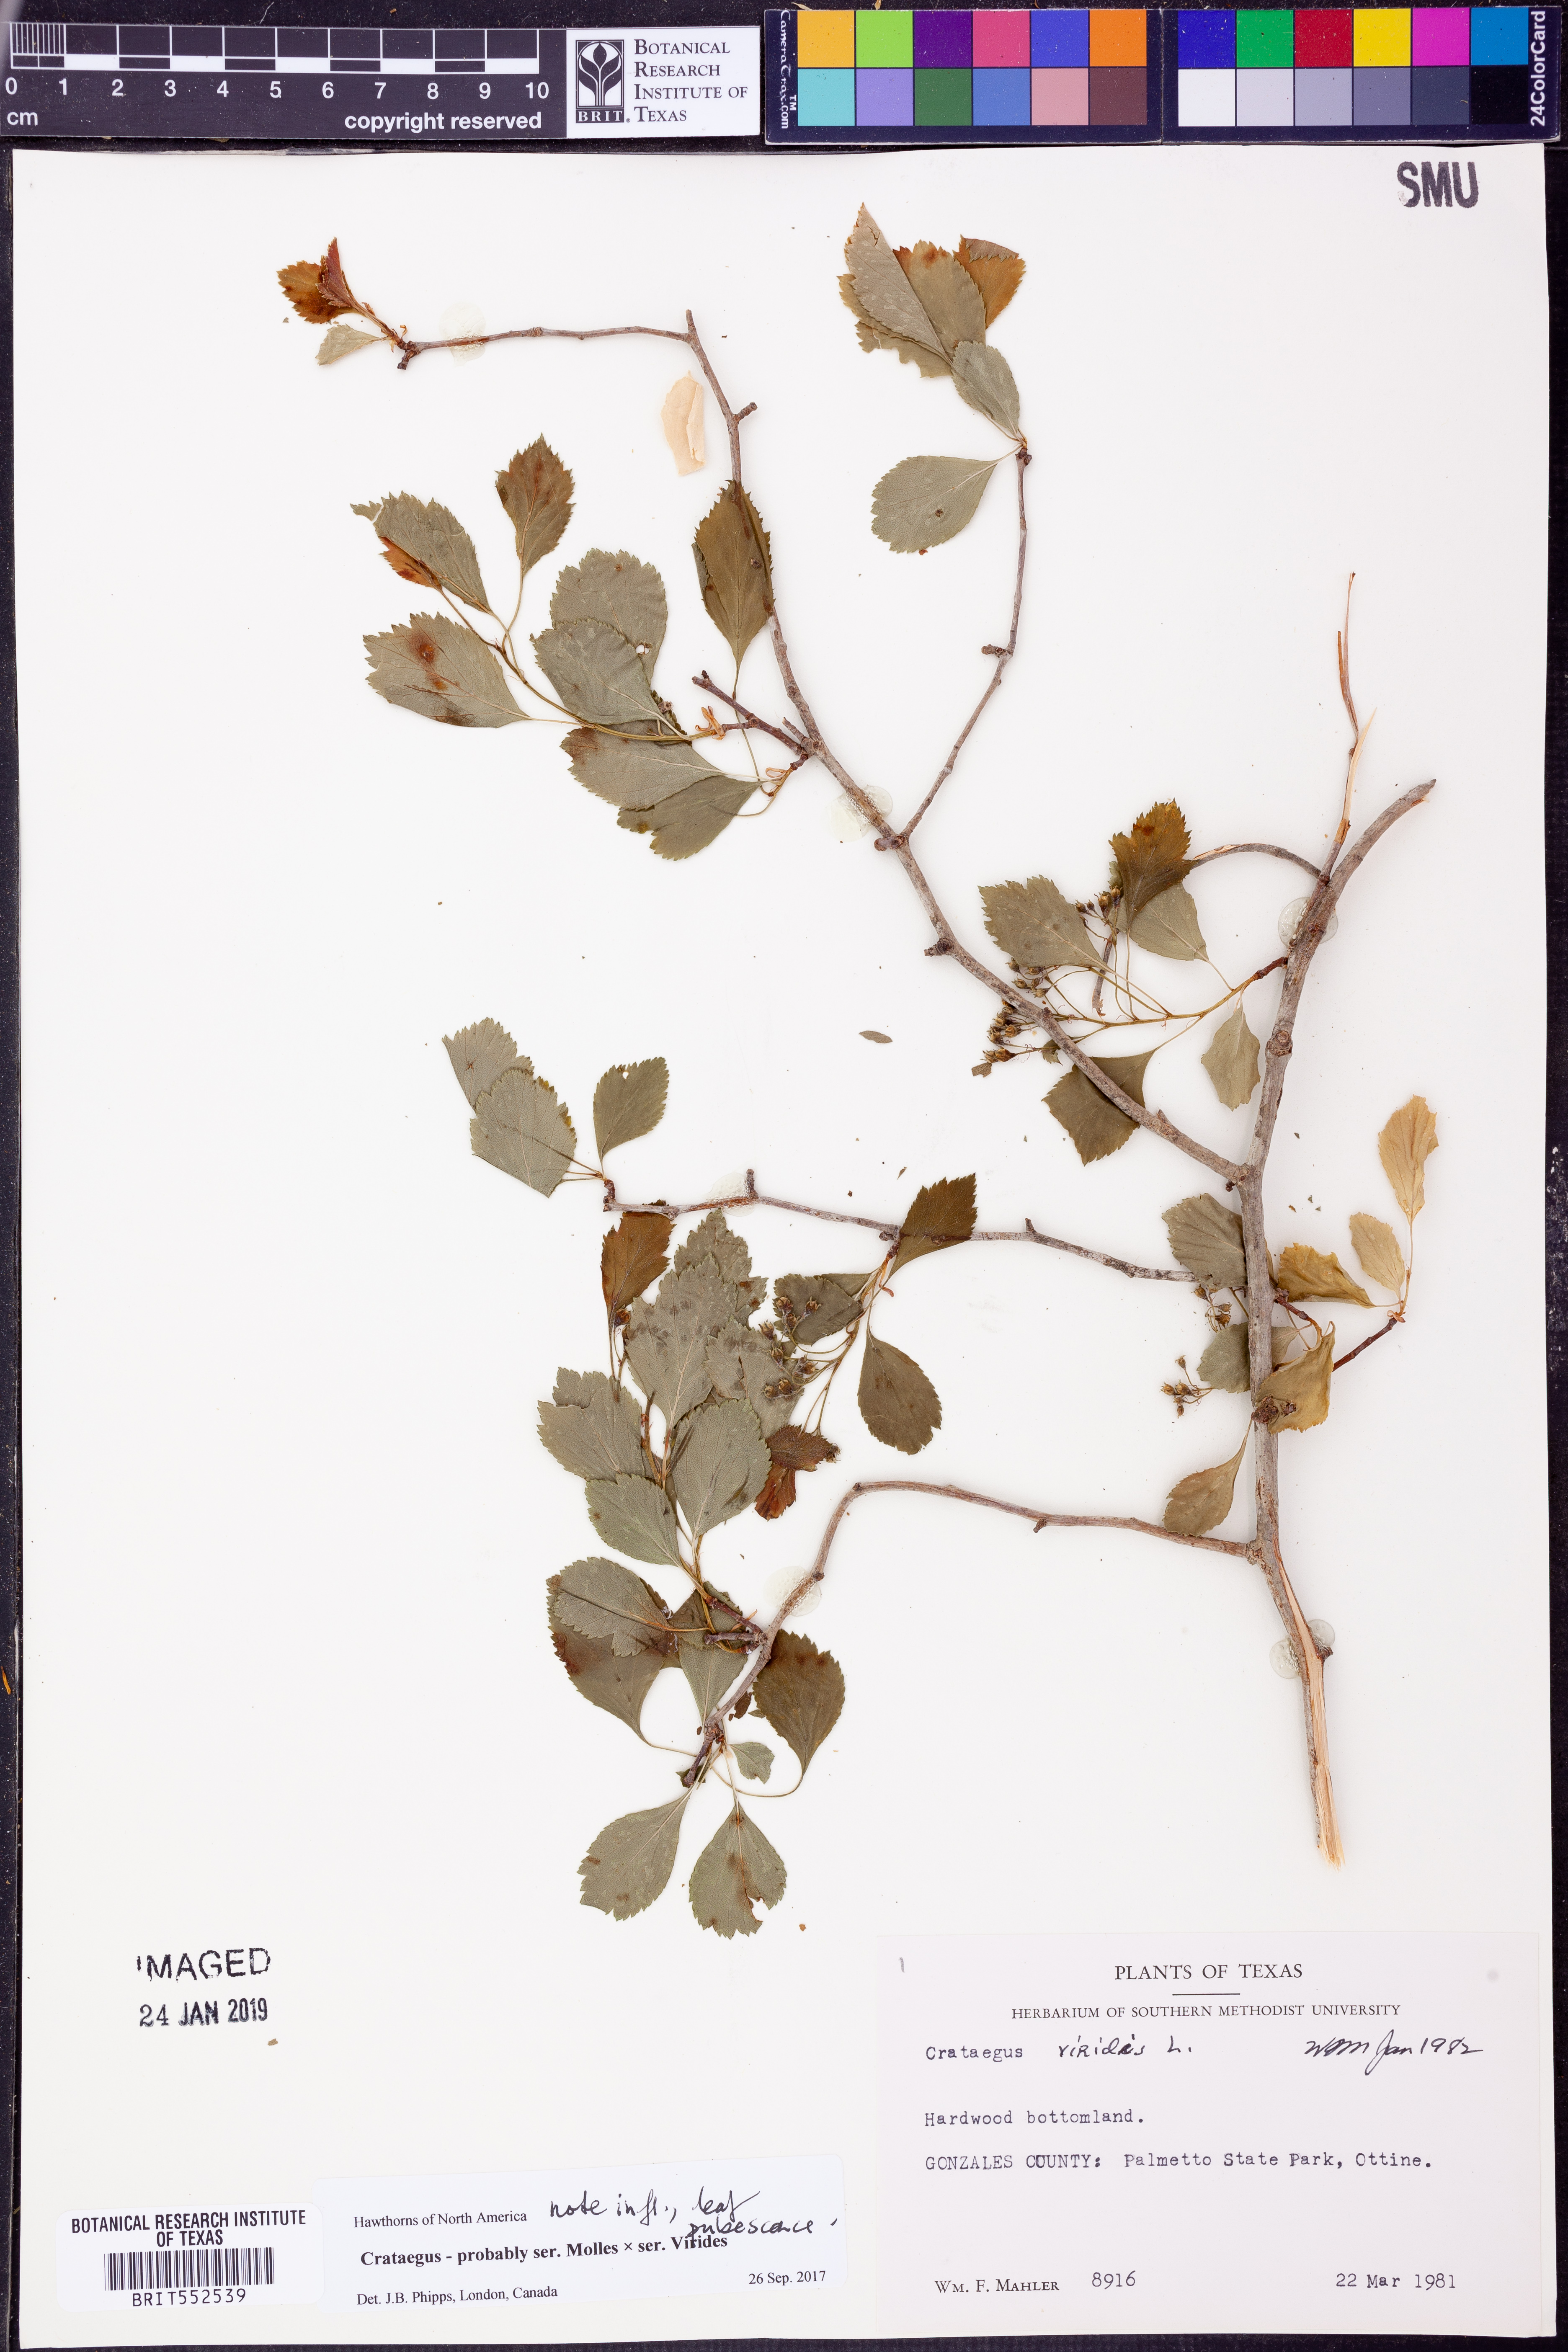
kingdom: Plantae
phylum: Tracheophyta
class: Magnoliopsida
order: Rosales
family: Rosaceae
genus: Crataegus
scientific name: Crataegus
